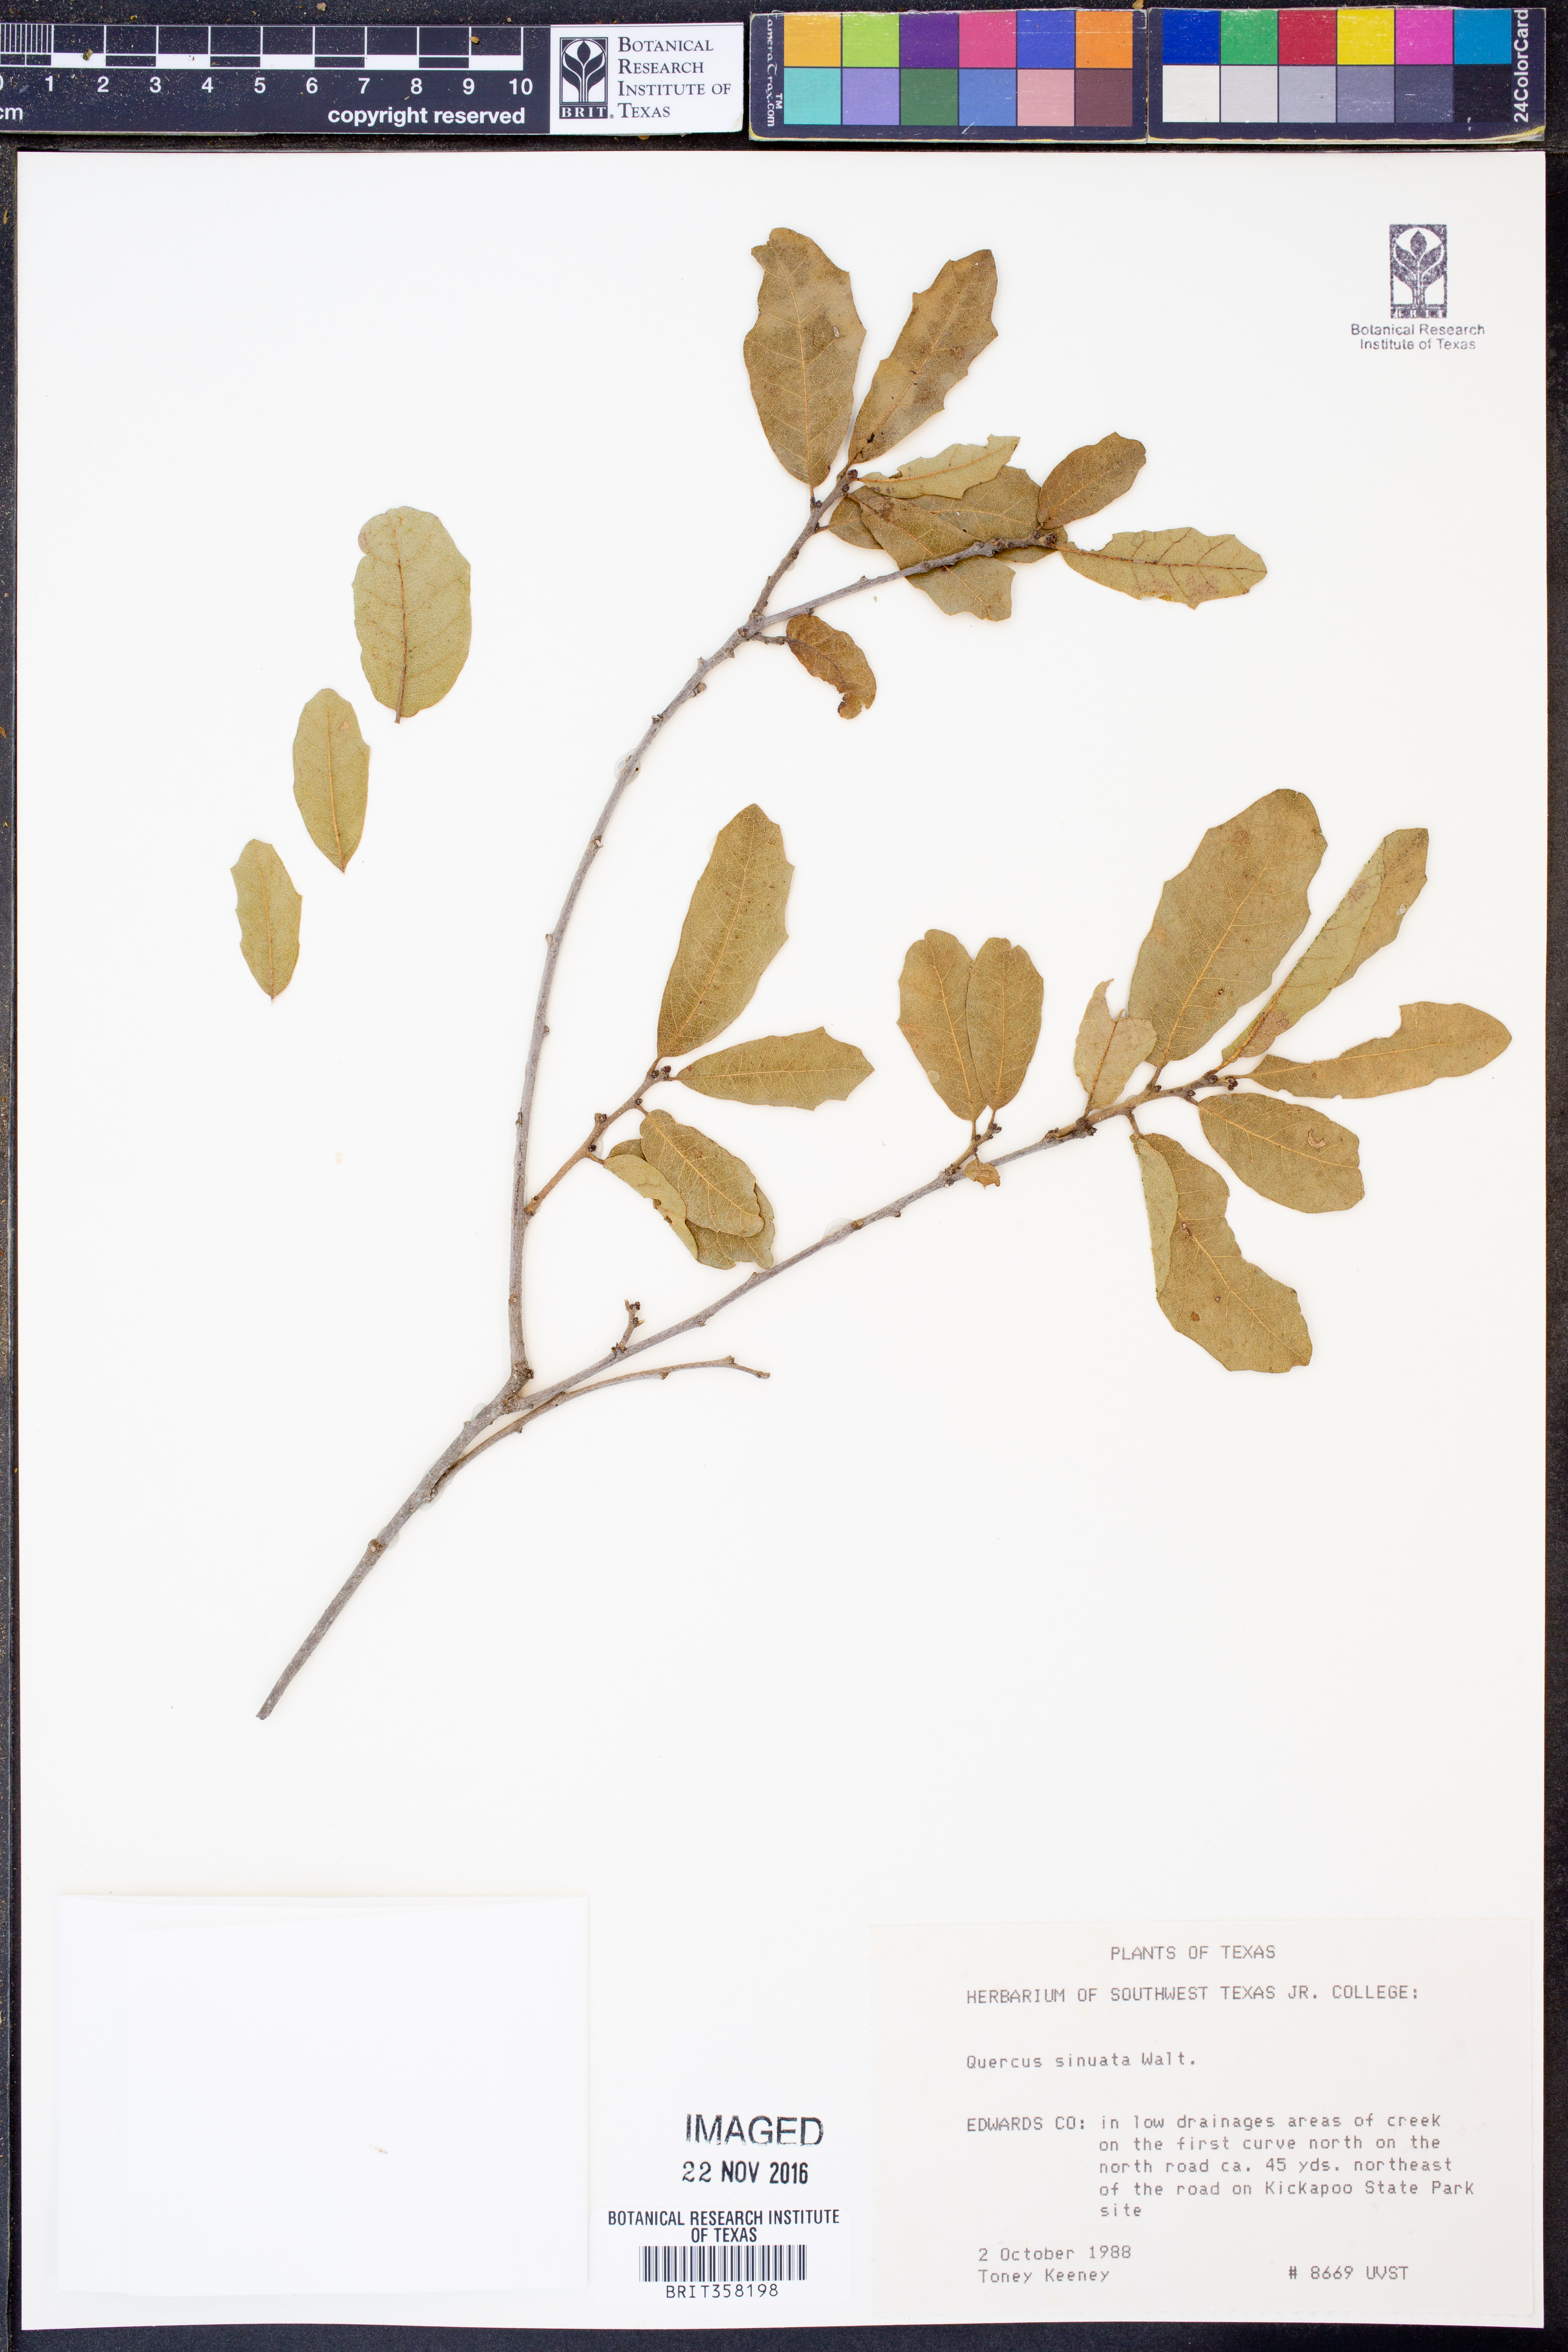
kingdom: Plantae
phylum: Tracheophyta
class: Magnoliopsida
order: Fagales
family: Fagaceae
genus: Quercus
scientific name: Quercus sinuata
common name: Durand oak
